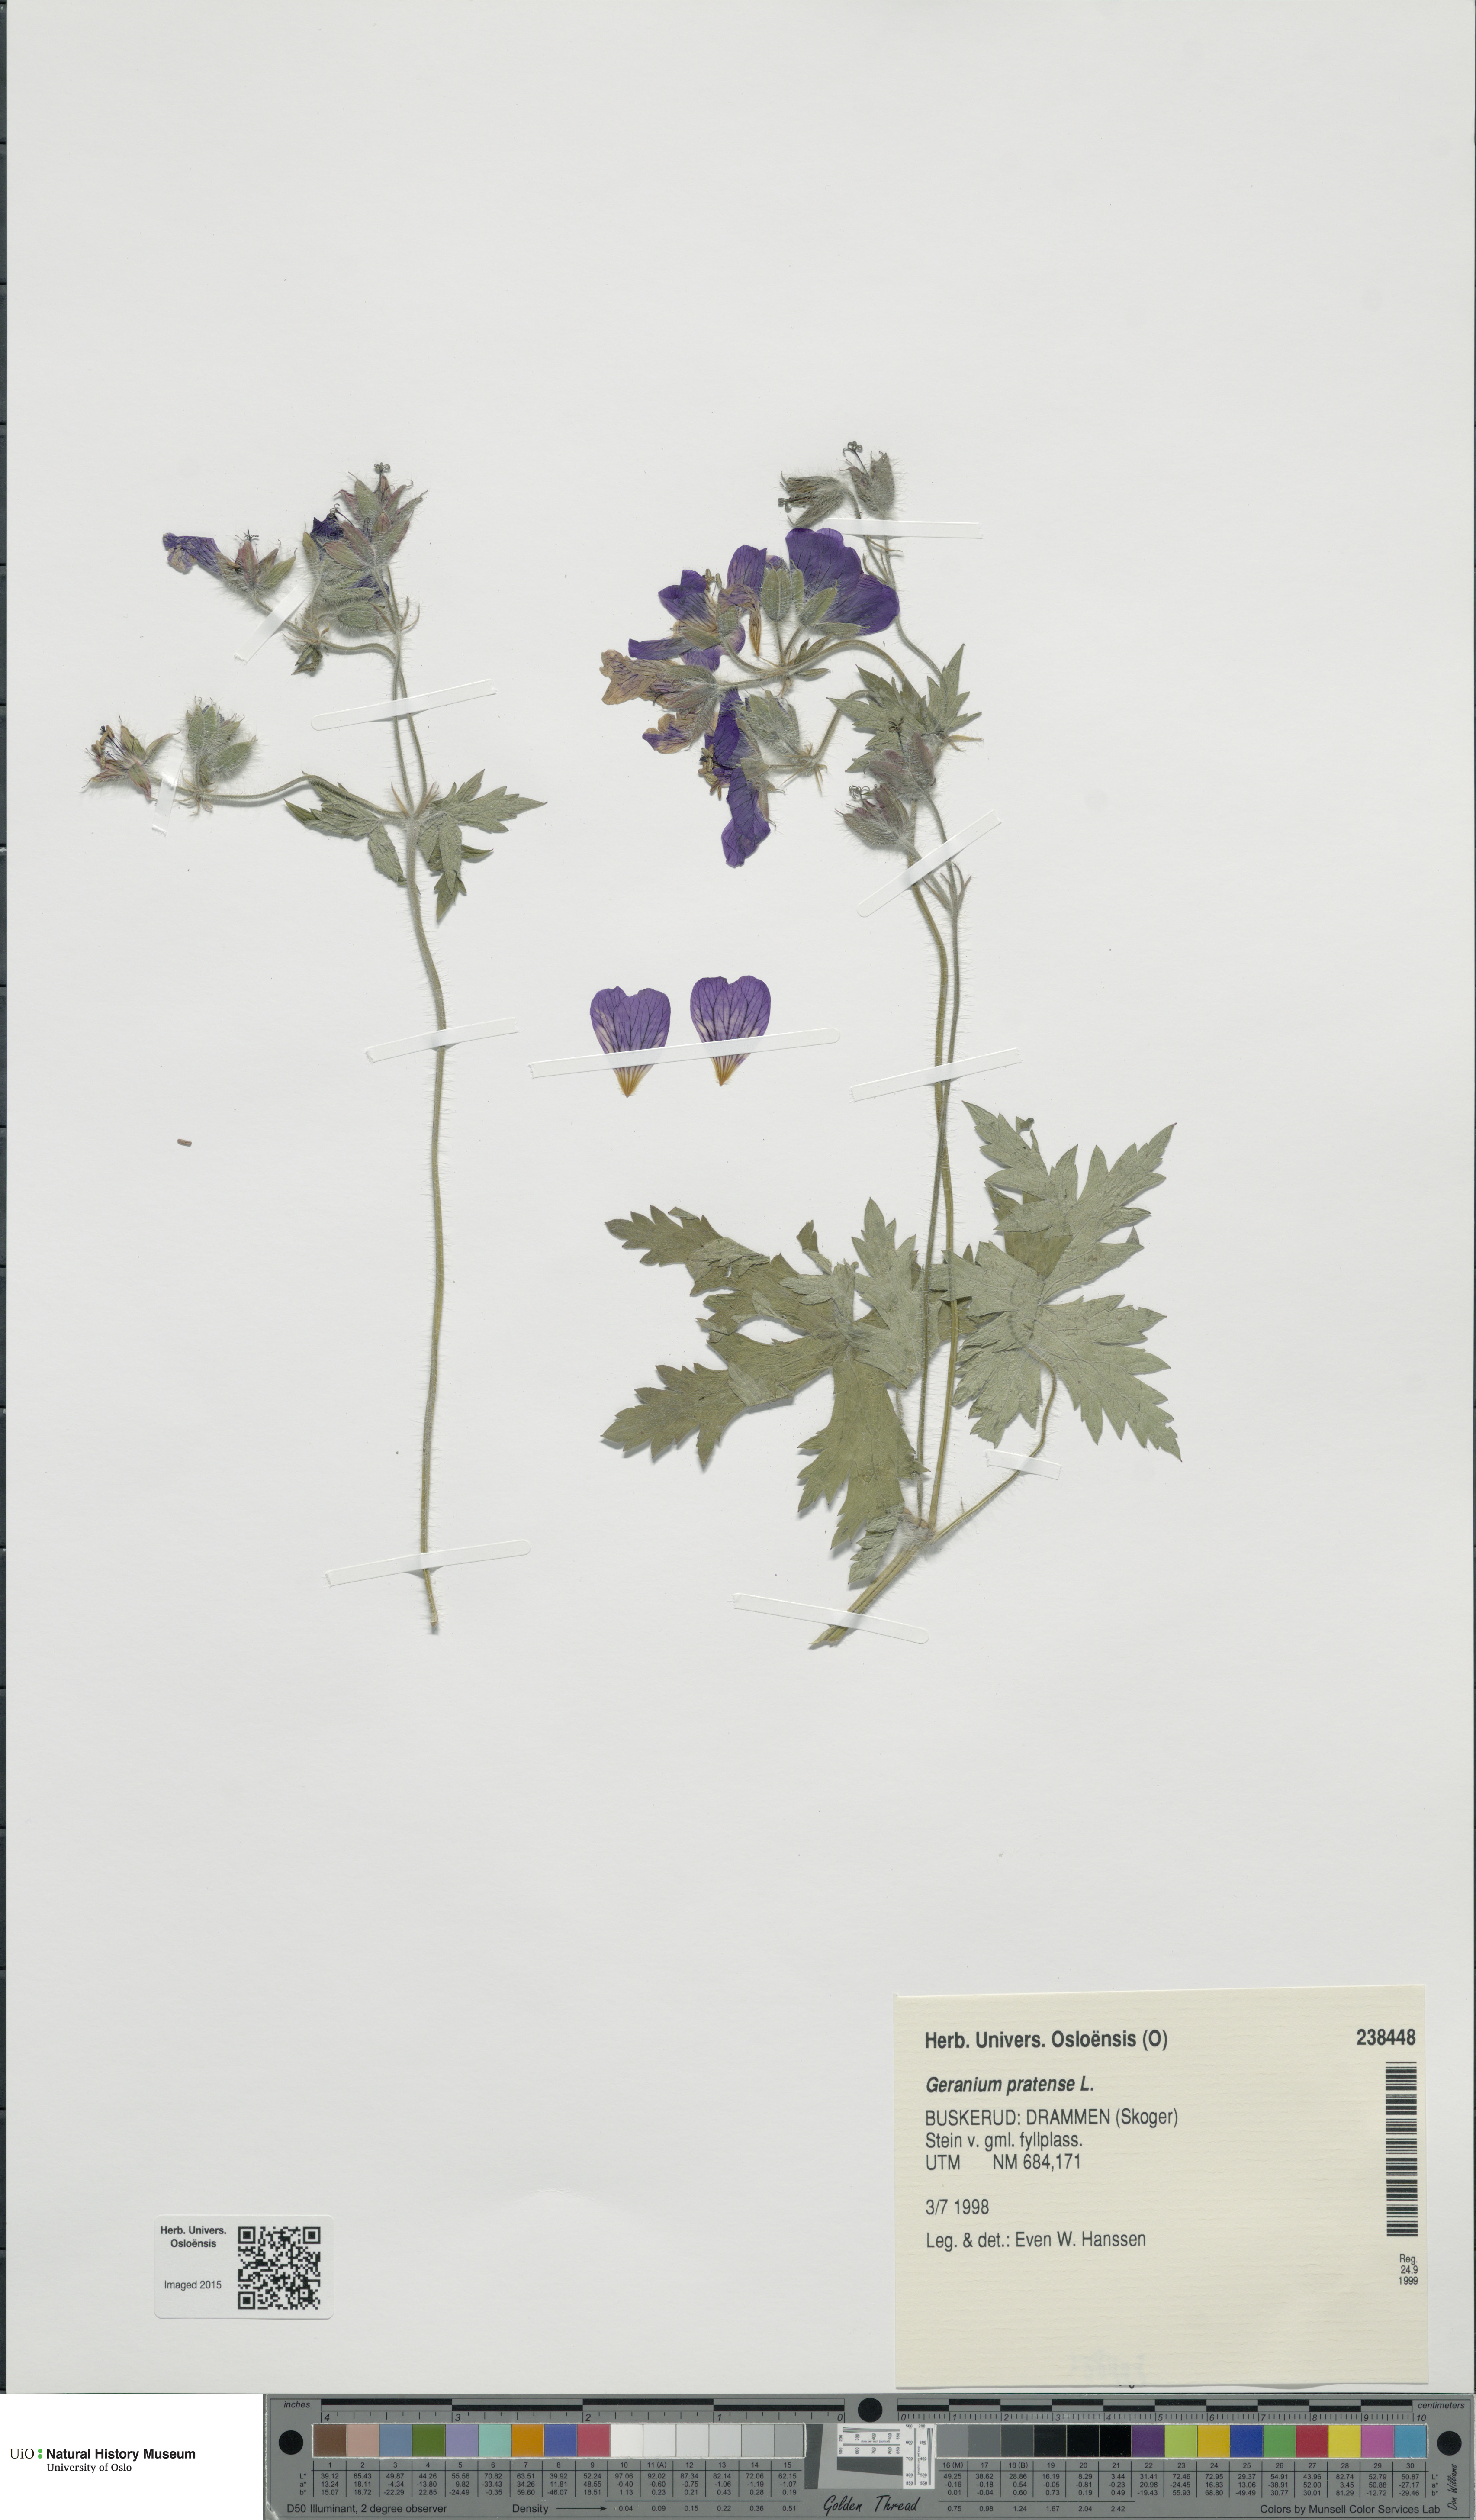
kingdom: Plantae
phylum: Tracheophyta
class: Magnoliopsida
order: Geraniales
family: Geraniaceae
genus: Geranium
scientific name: Geranium pratense
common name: Meadow crane's-bill
